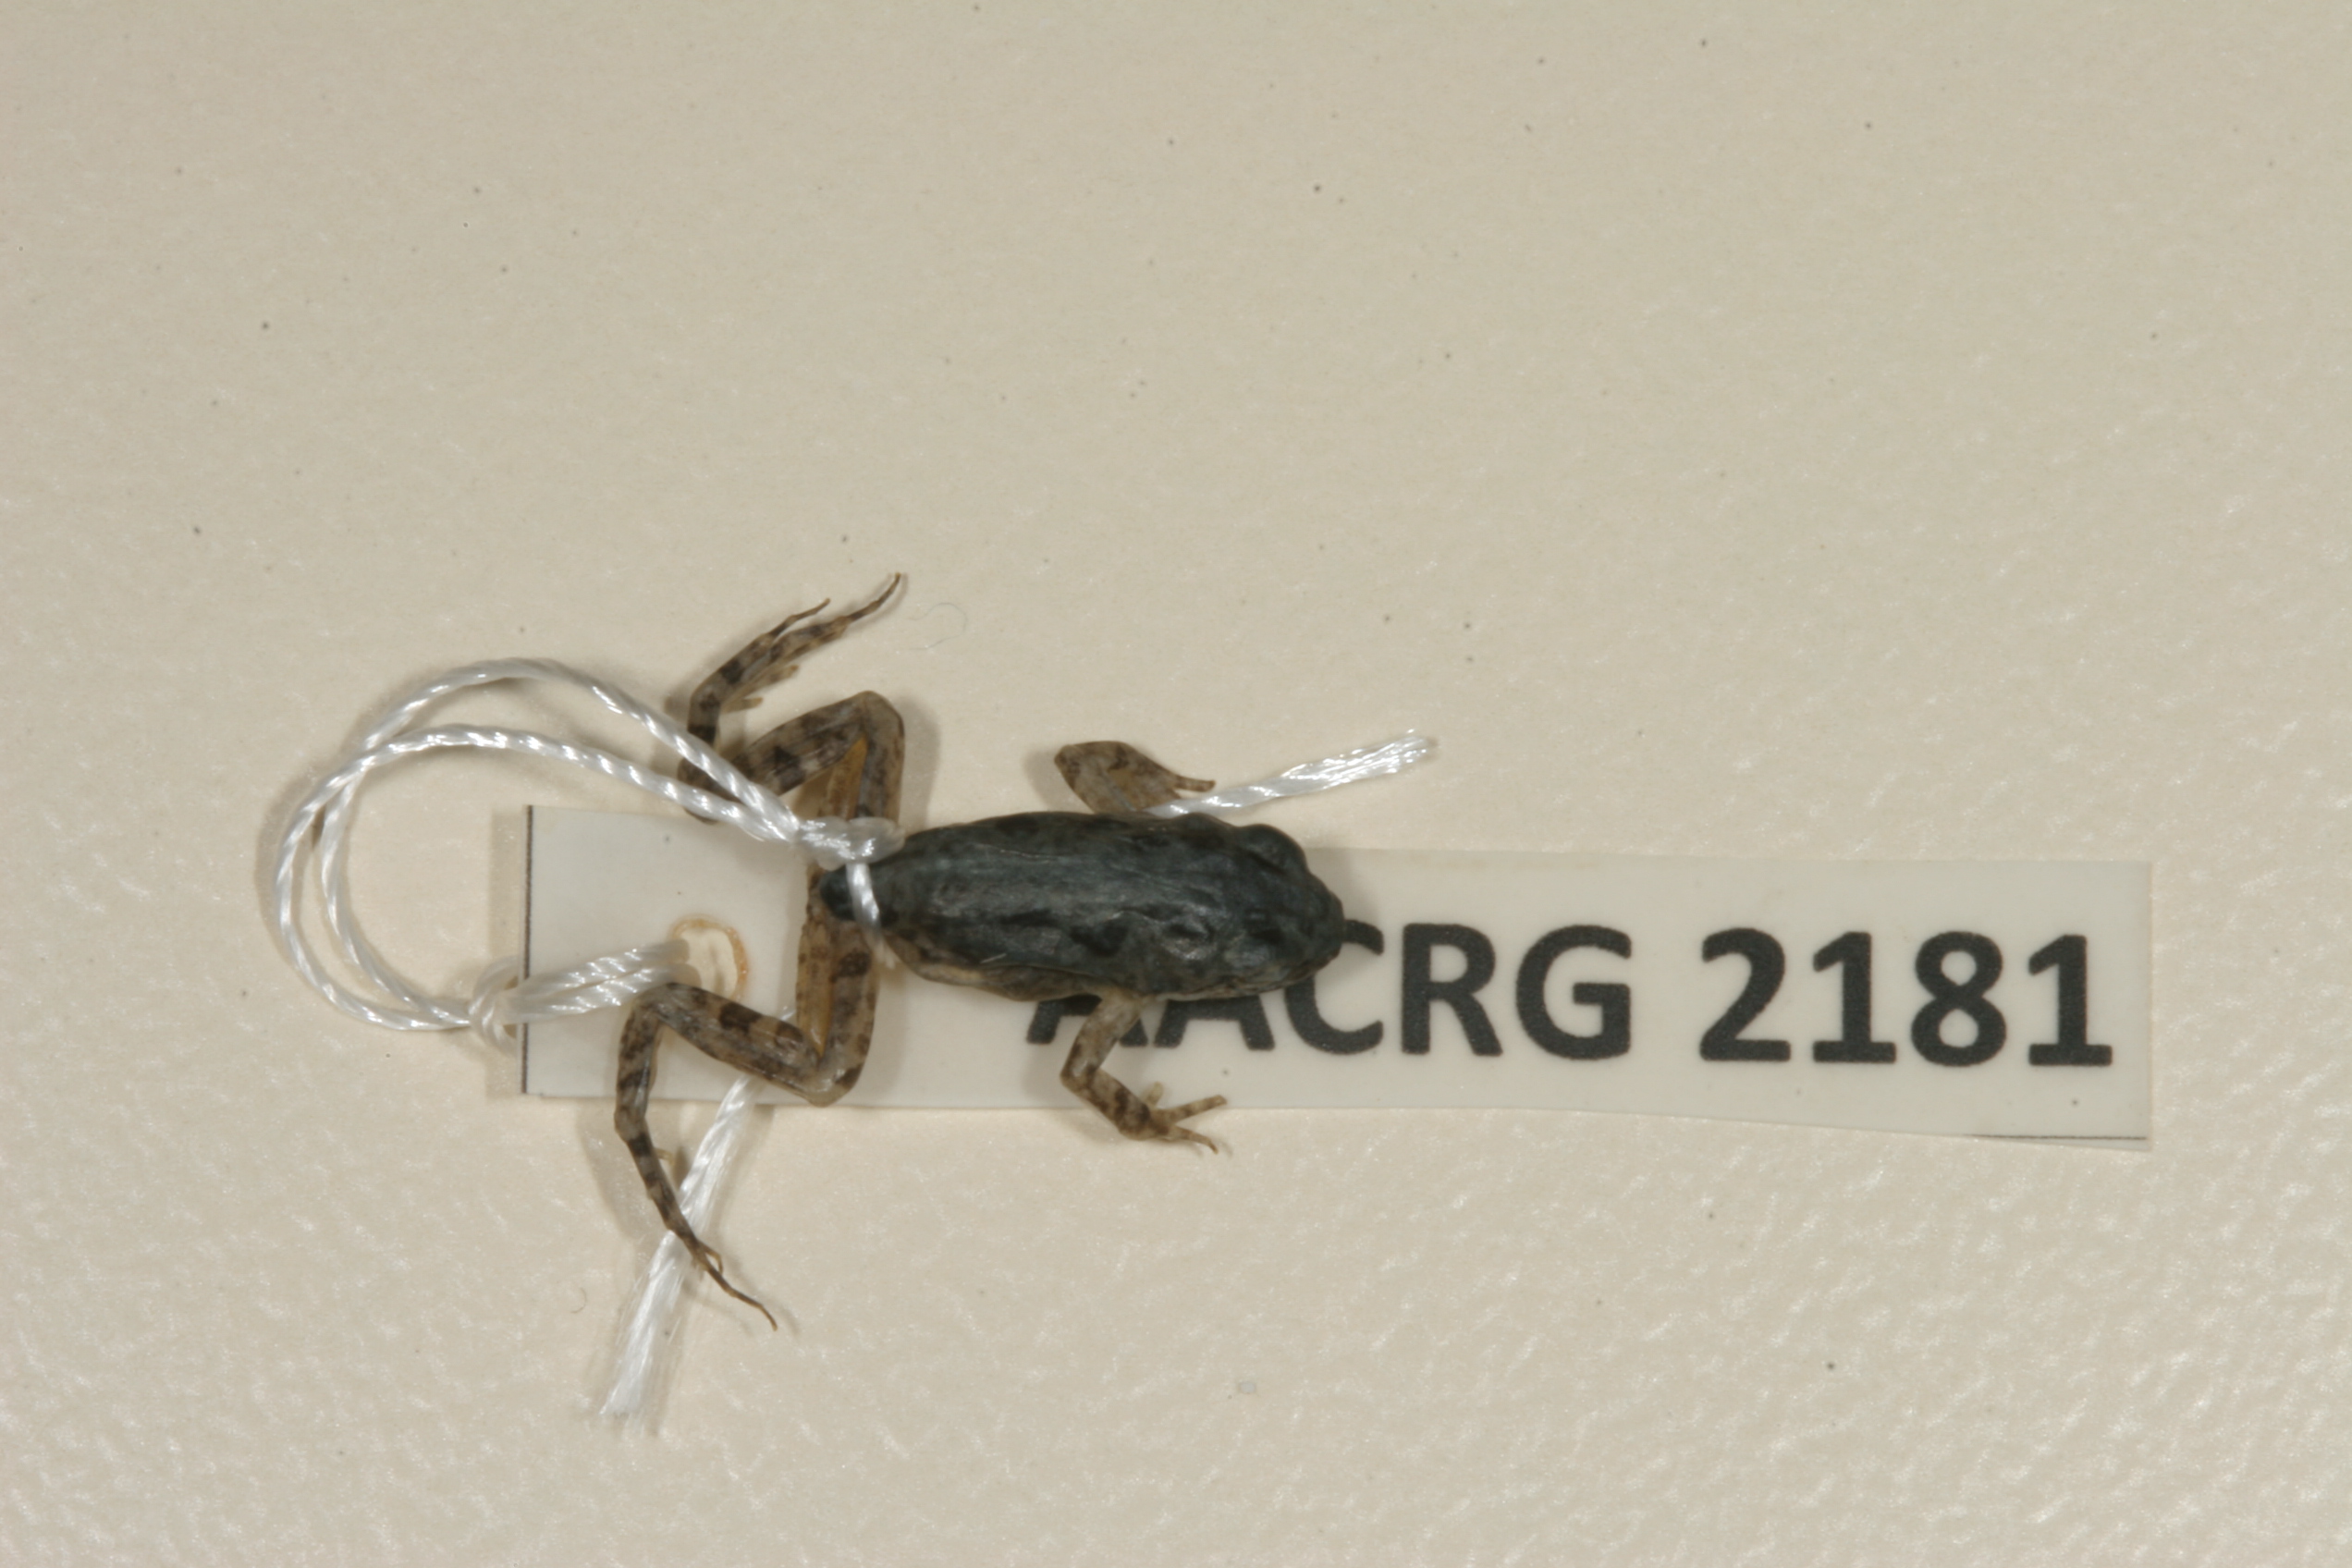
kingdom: Animalia
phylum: Chordata
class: Amphibia
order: Anura
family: Pyxicephalidae
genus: Cacosternum
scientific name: Cacosternum boettgeri
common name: Boettger's frog
